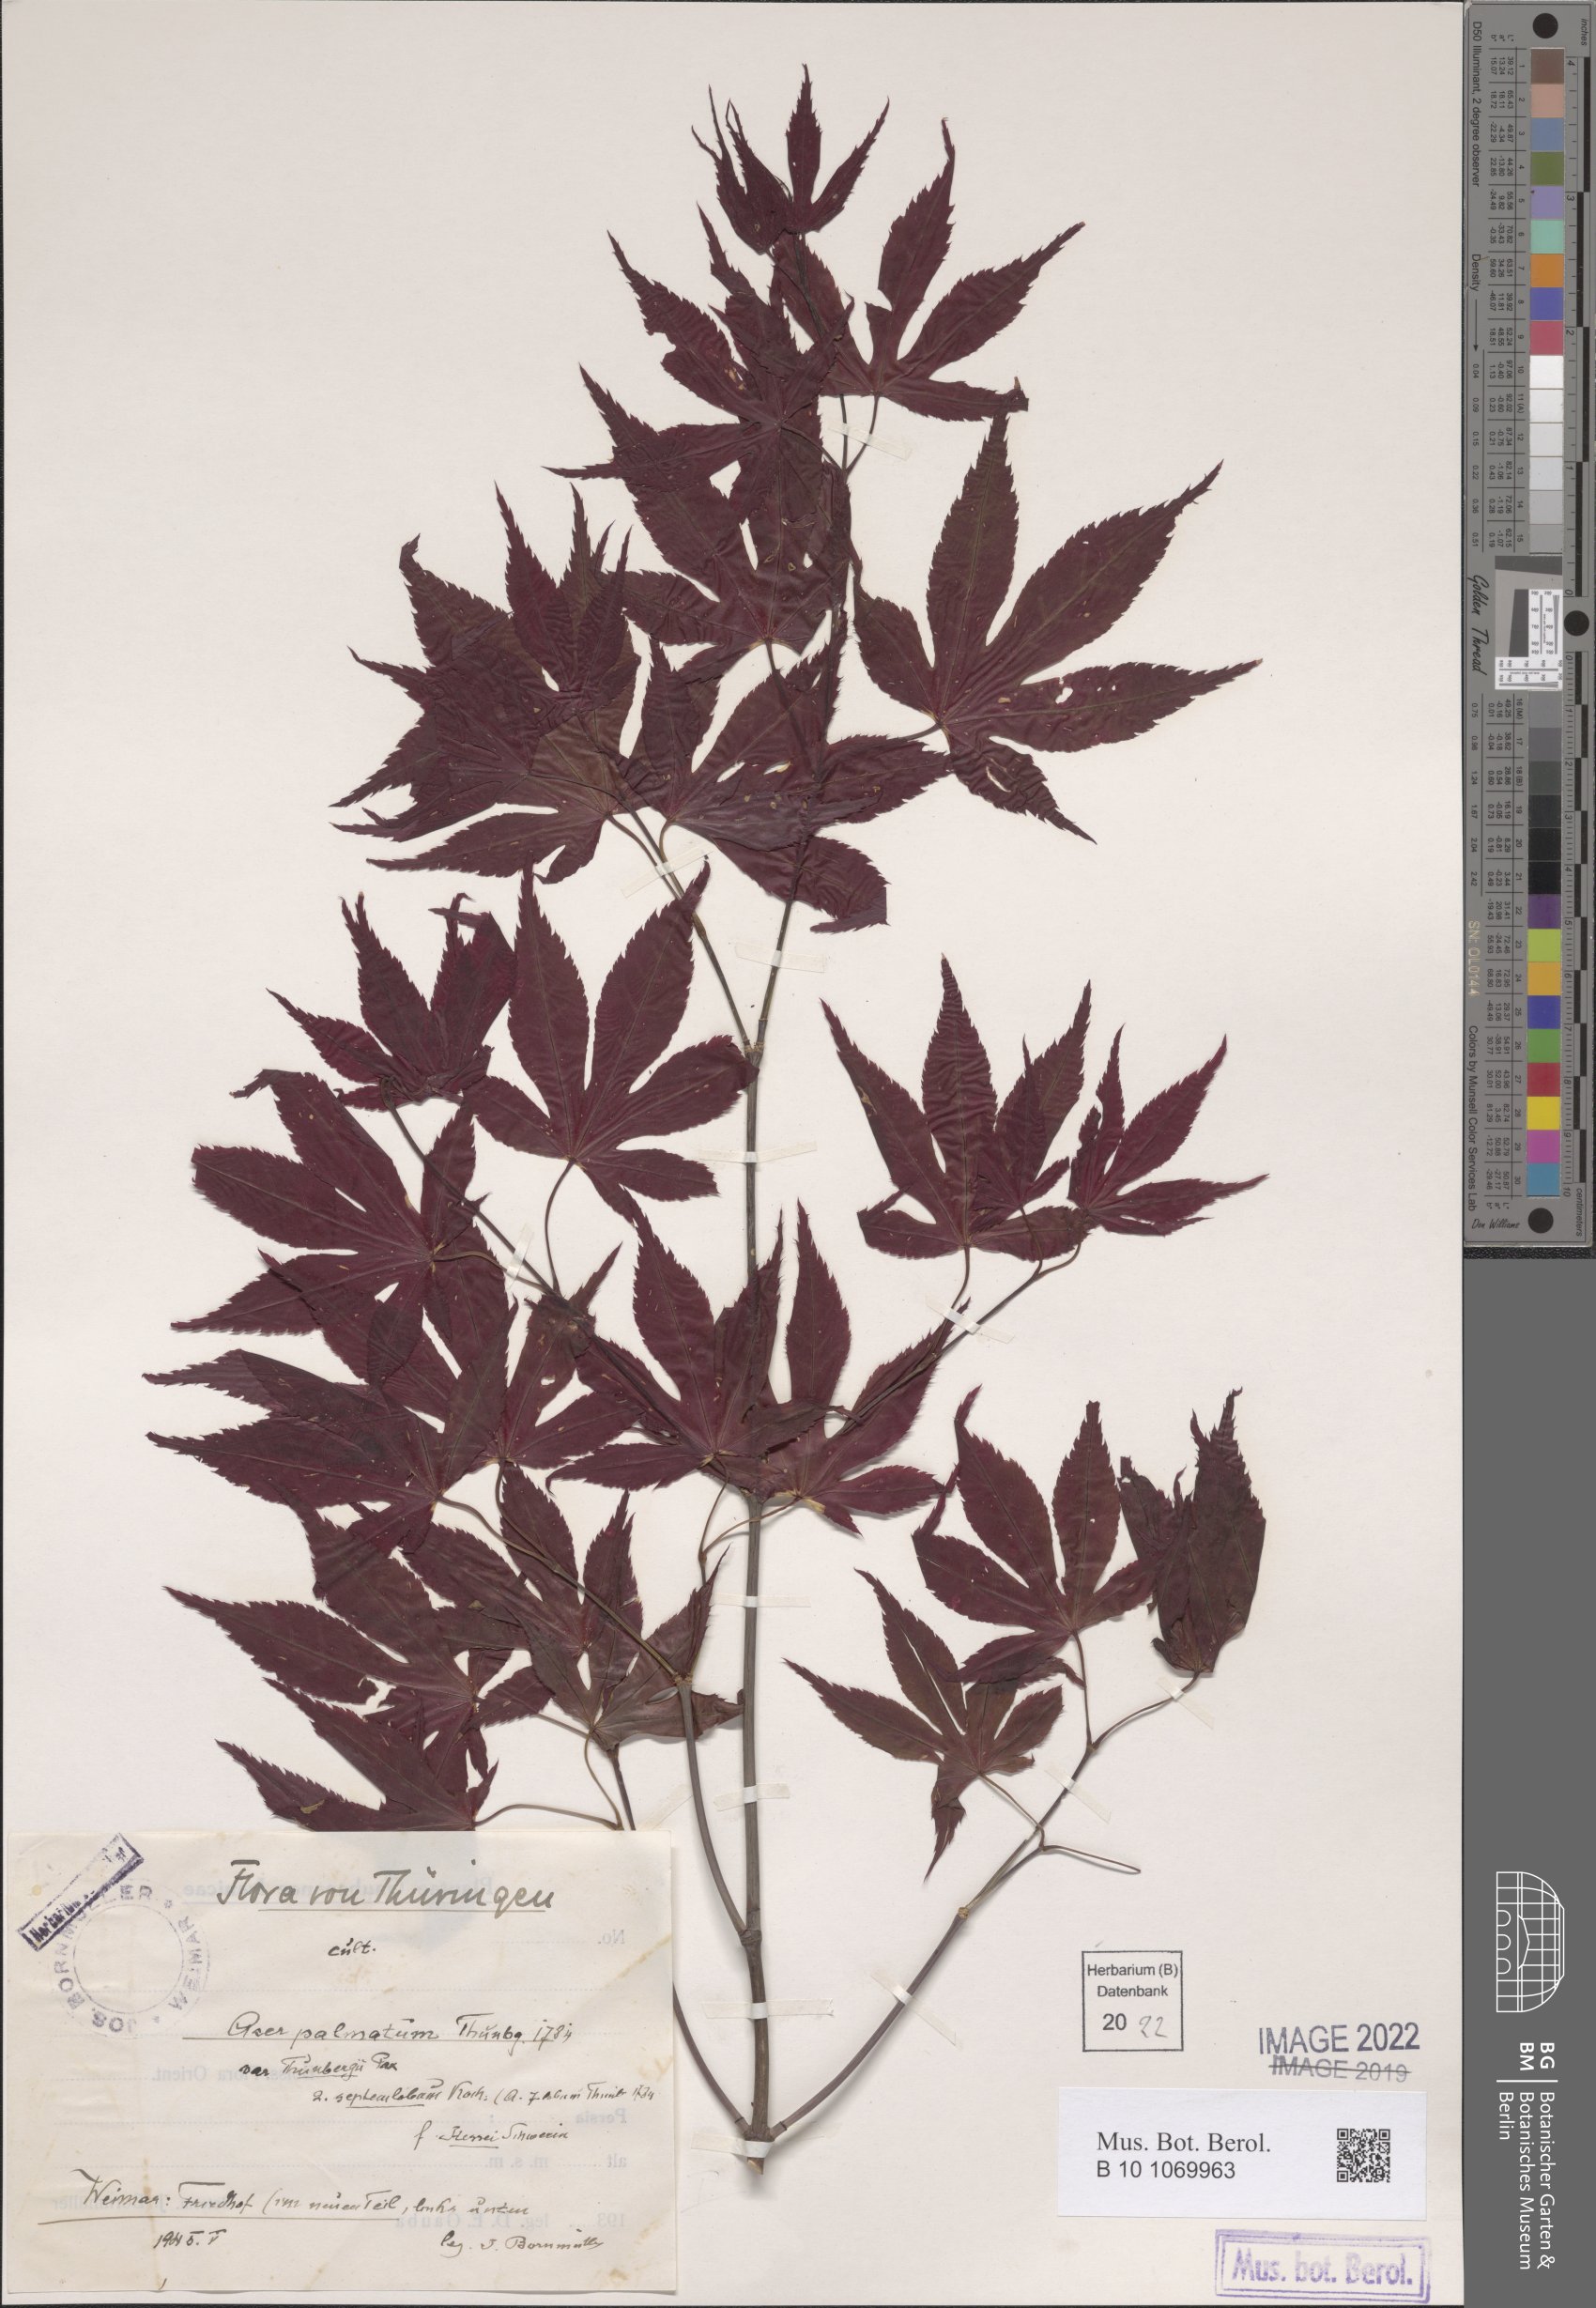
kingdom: Plantae
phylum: Tracheophyta
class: Magnoliopsida
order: Sapindales
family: Sapindaceae
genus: Acer
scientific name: Acer palmatum
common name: Japanese maple
